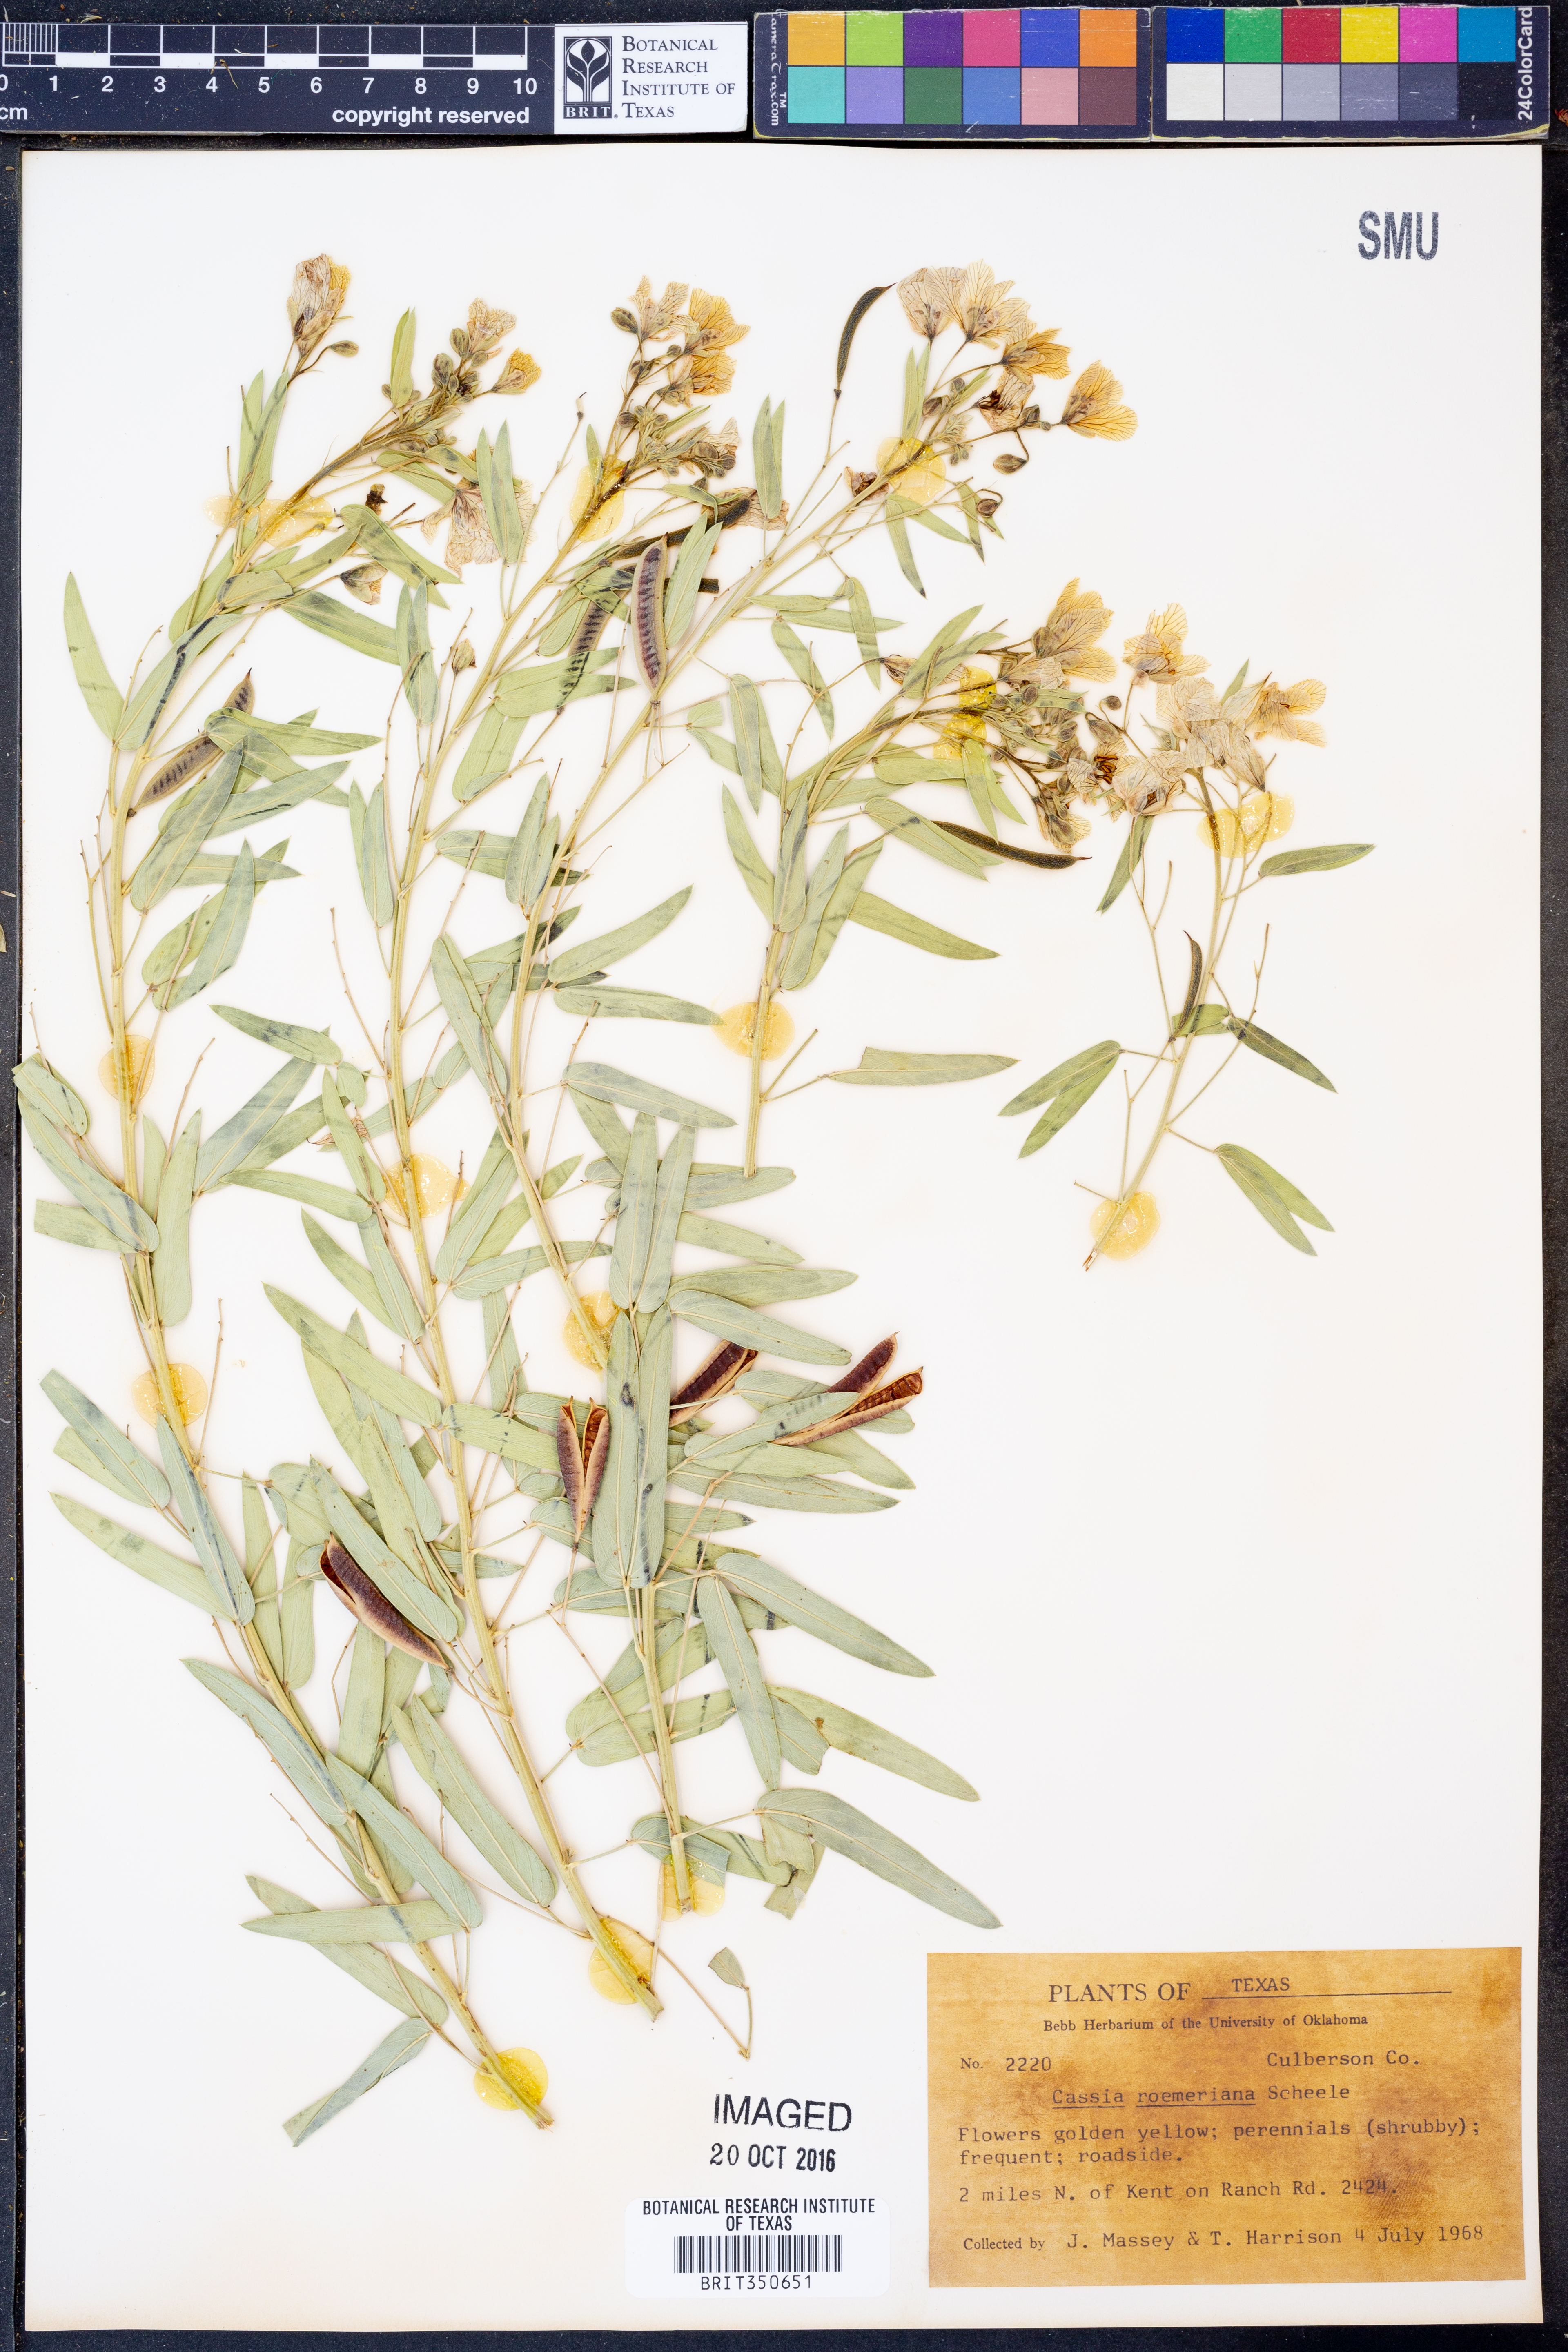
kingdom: Plantae
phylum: Tracheophyta
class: Magnoliopsida
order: Fabales
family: Fabaceae
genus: Senna
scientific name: Senna roemeriana
